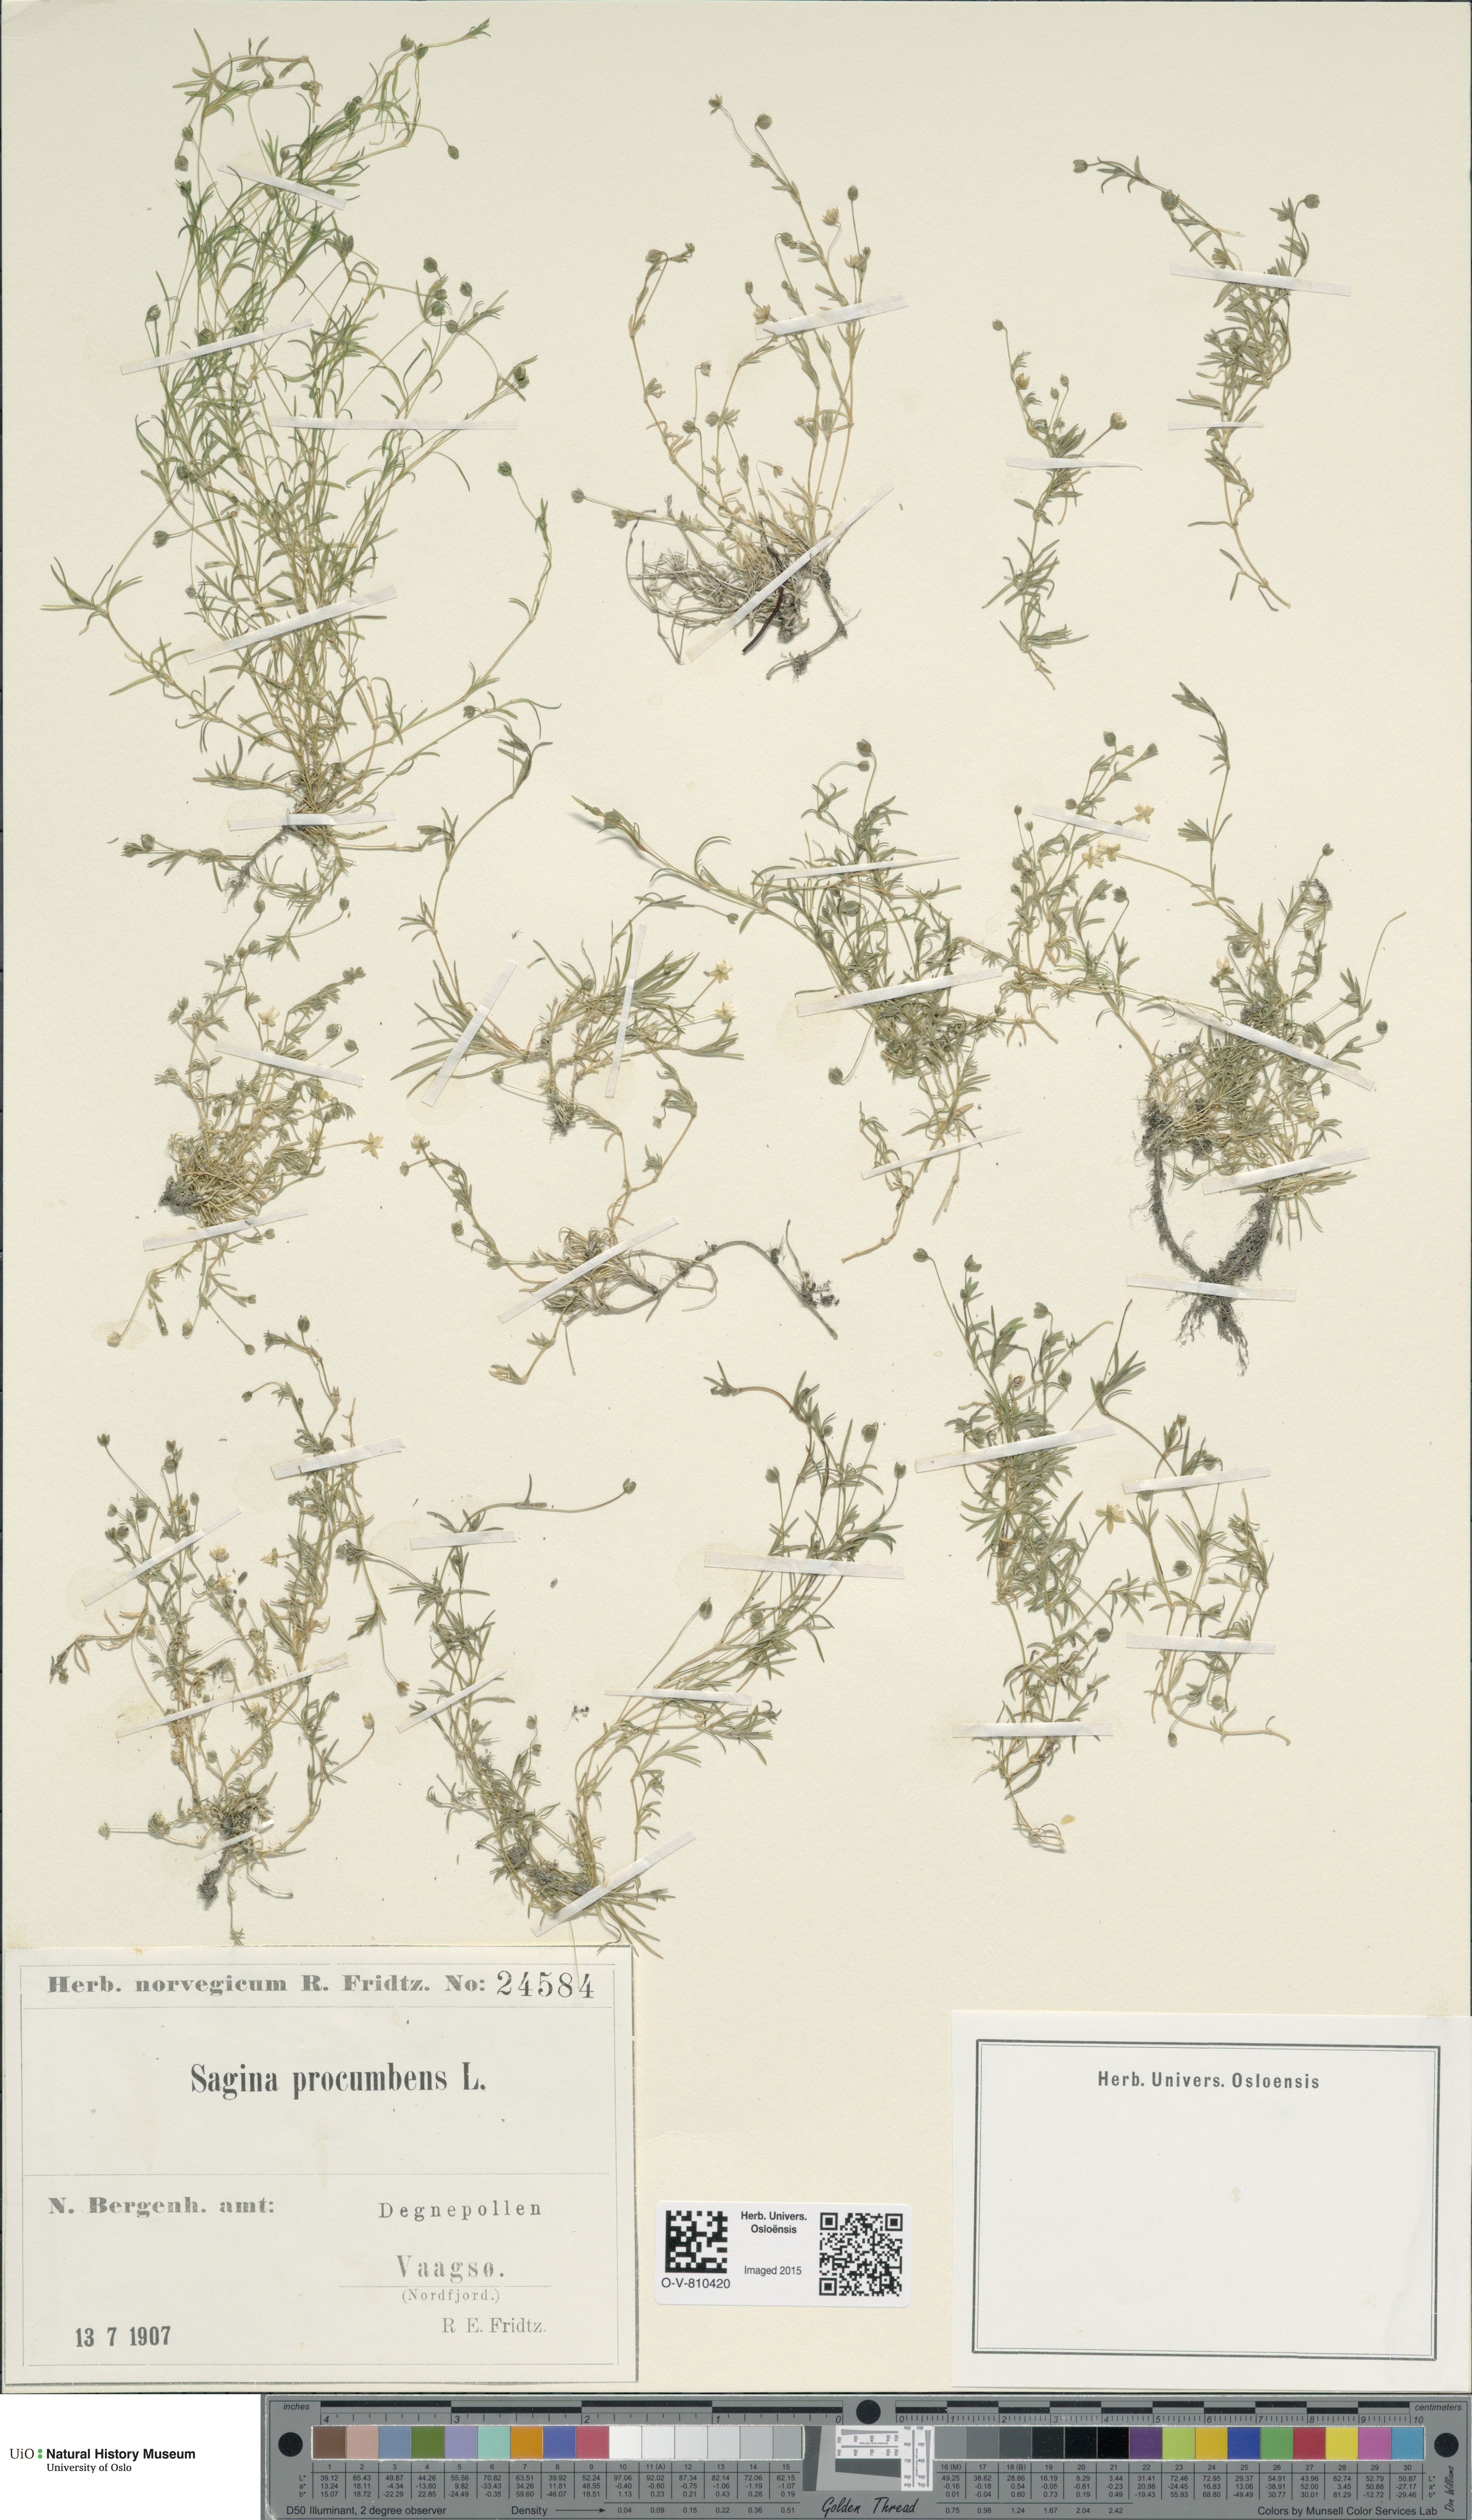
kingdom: Plantae
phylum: Tracheophyta
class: Magnoliopsida
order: Caryophyllales
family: Caryophyllaceae
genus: Sagina
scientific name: Sagina procumbens
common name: Procumbent pearlwort
